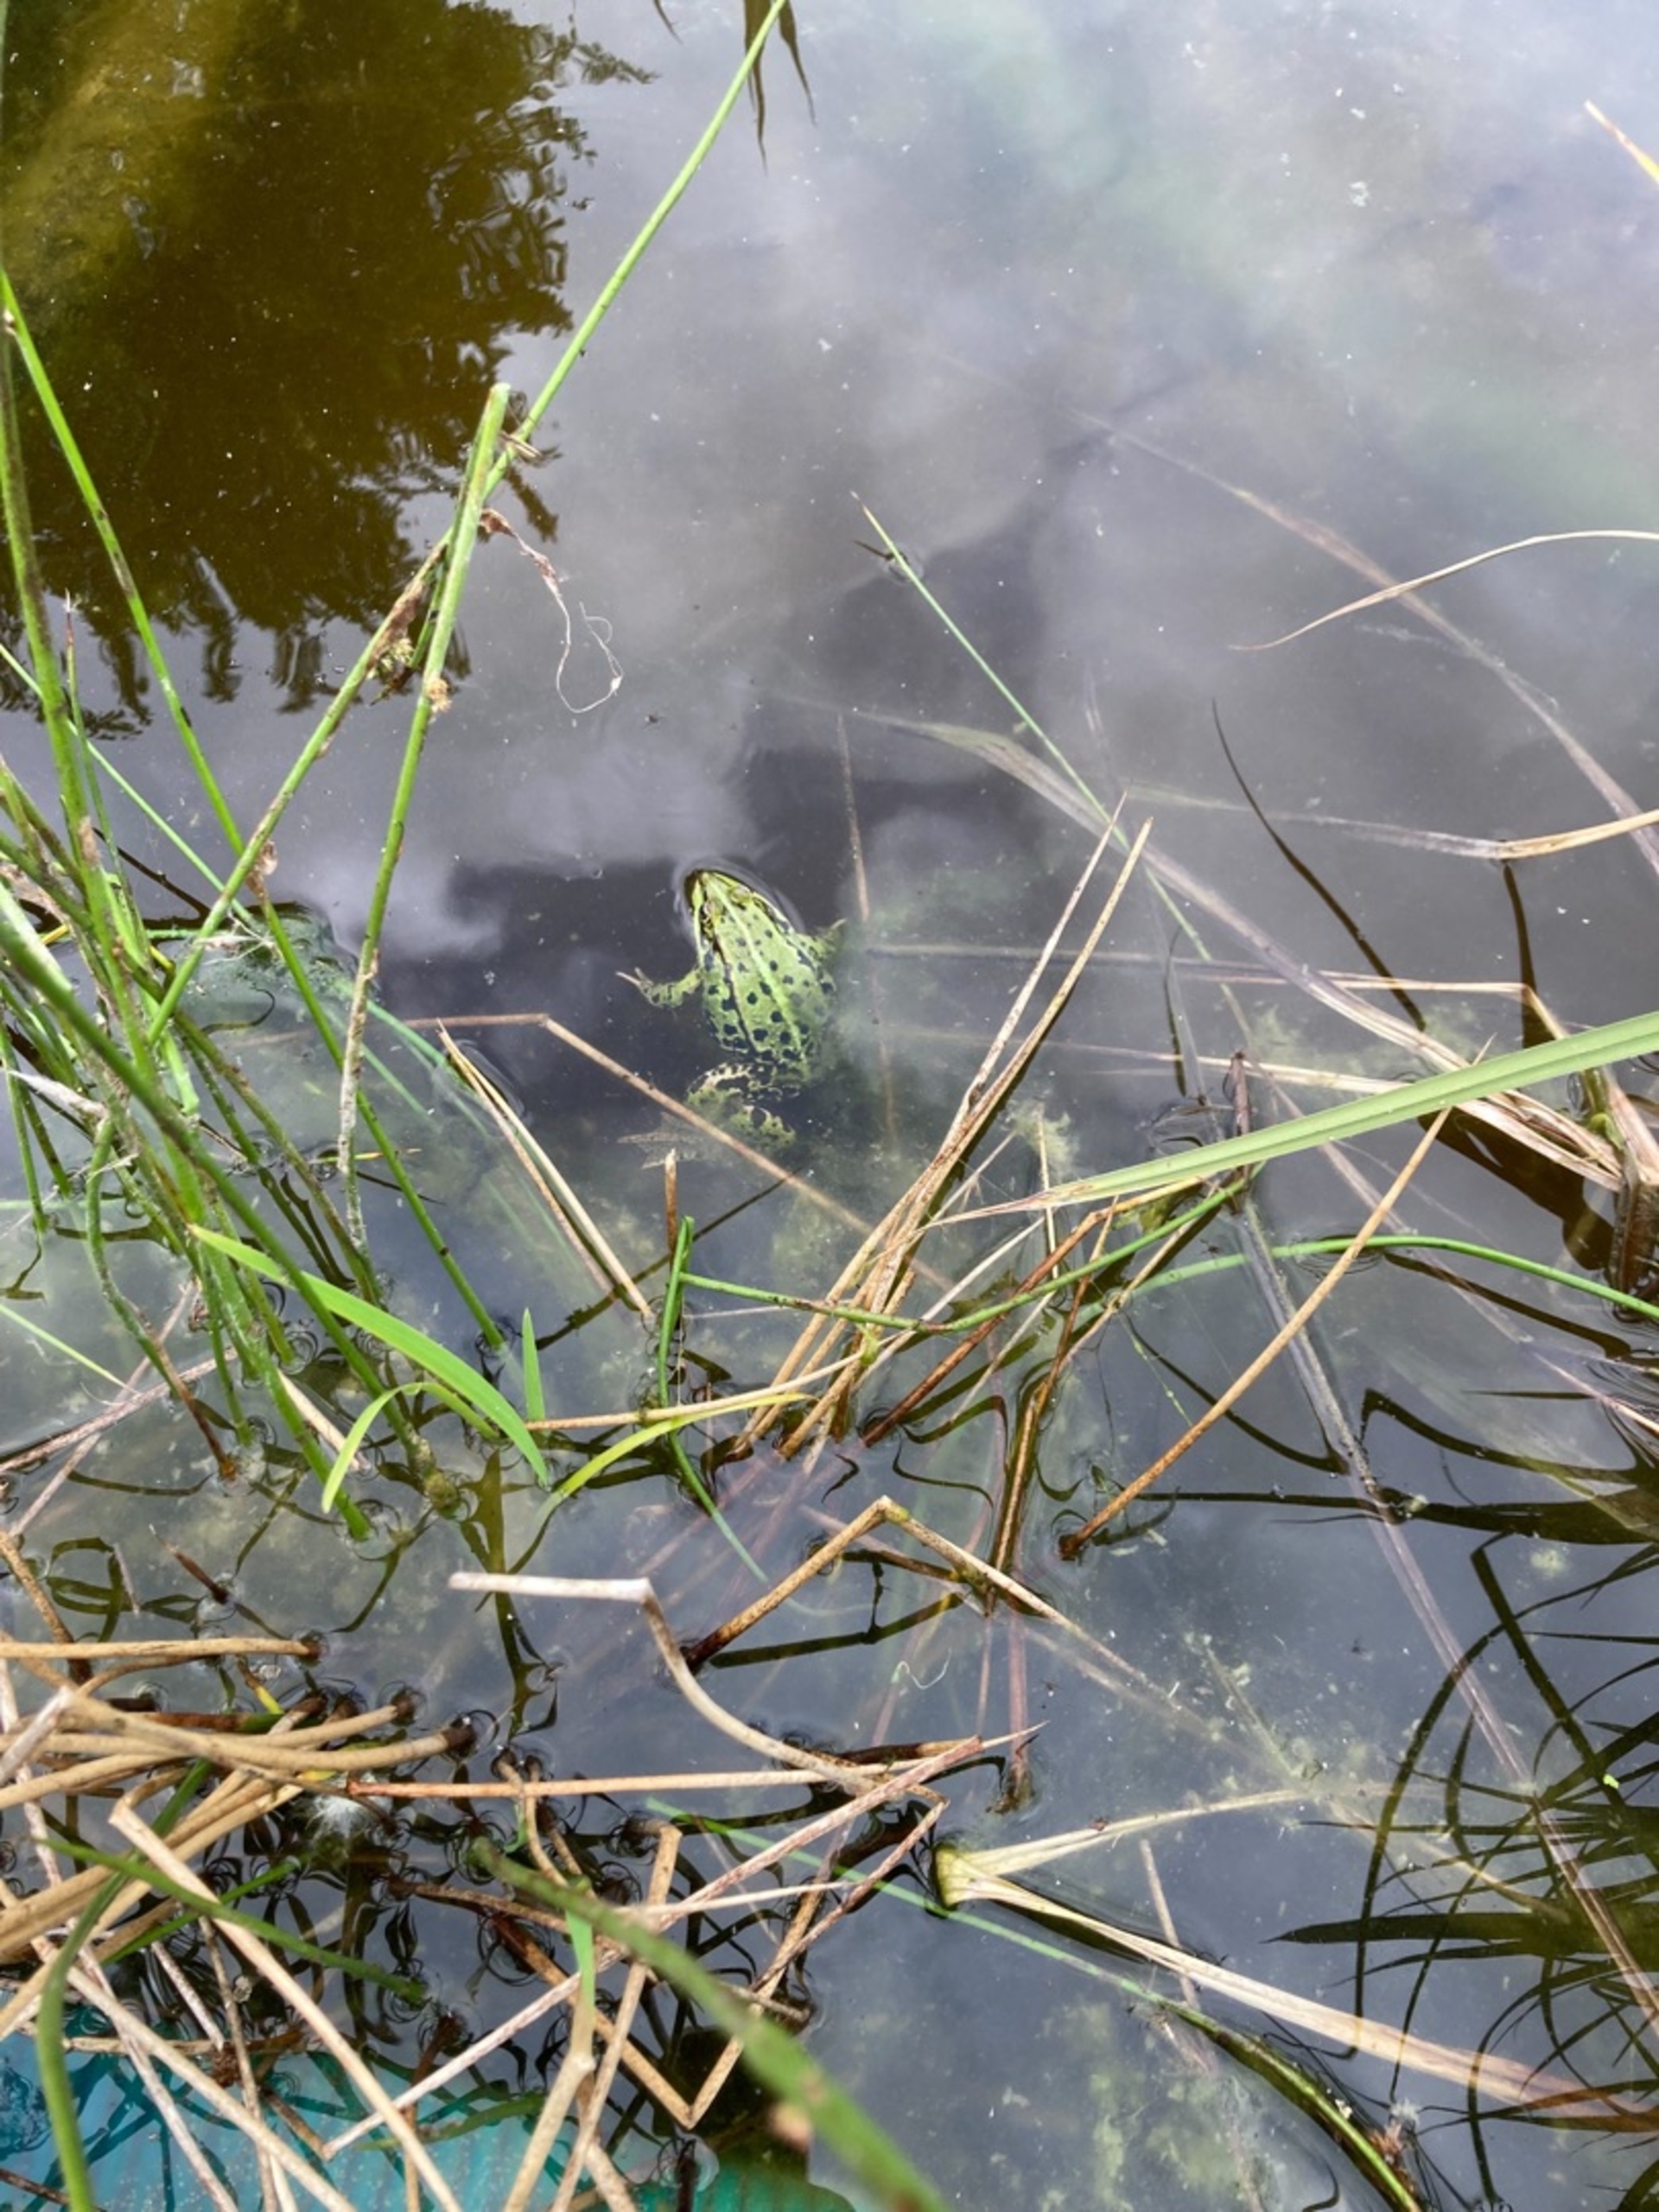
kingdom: Animalia
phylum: Chordata
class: Amphibia
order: Anura
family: Ranidae
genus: Pelophylax
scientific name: Pelophylax lessonae
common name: Grøn frø
